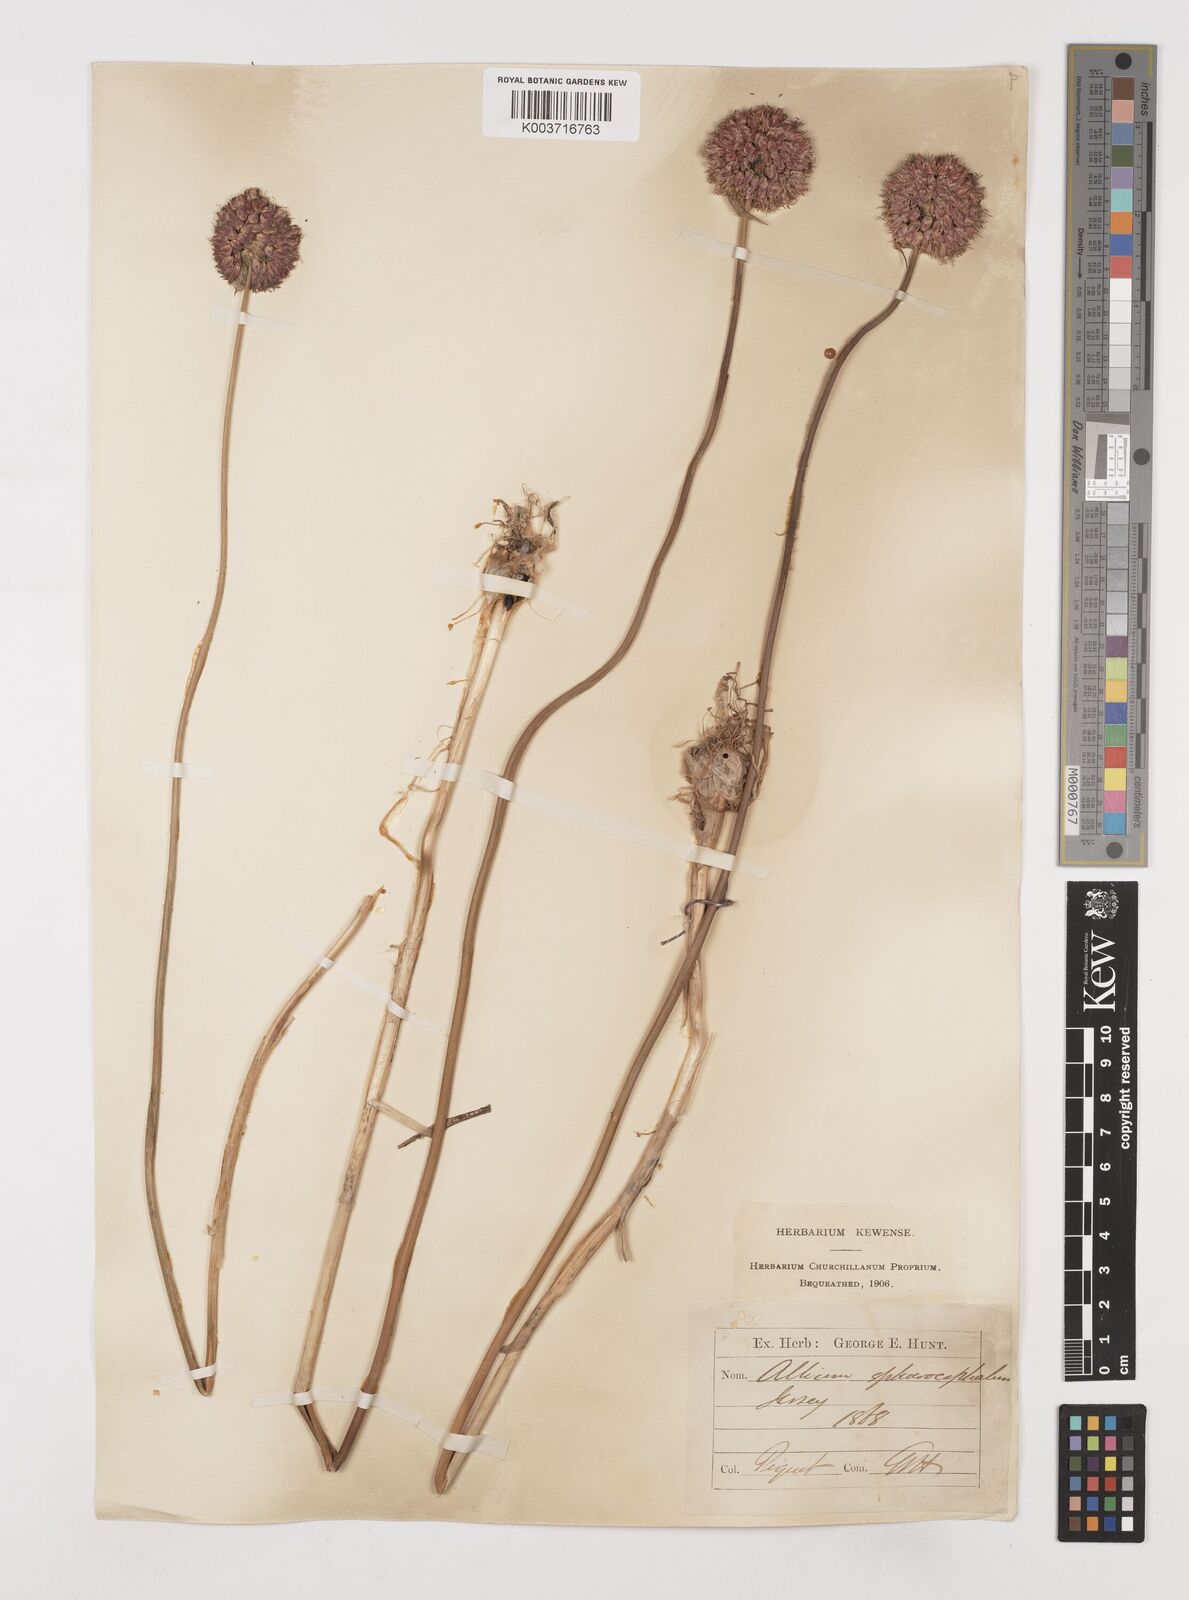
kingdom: Plantae
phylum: Tracheophyta
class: Liliopsida
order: Asparagales
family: Amaryllidaceae
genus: Allium
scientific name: Allium sphaerocephalon
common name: Round-headed leek
